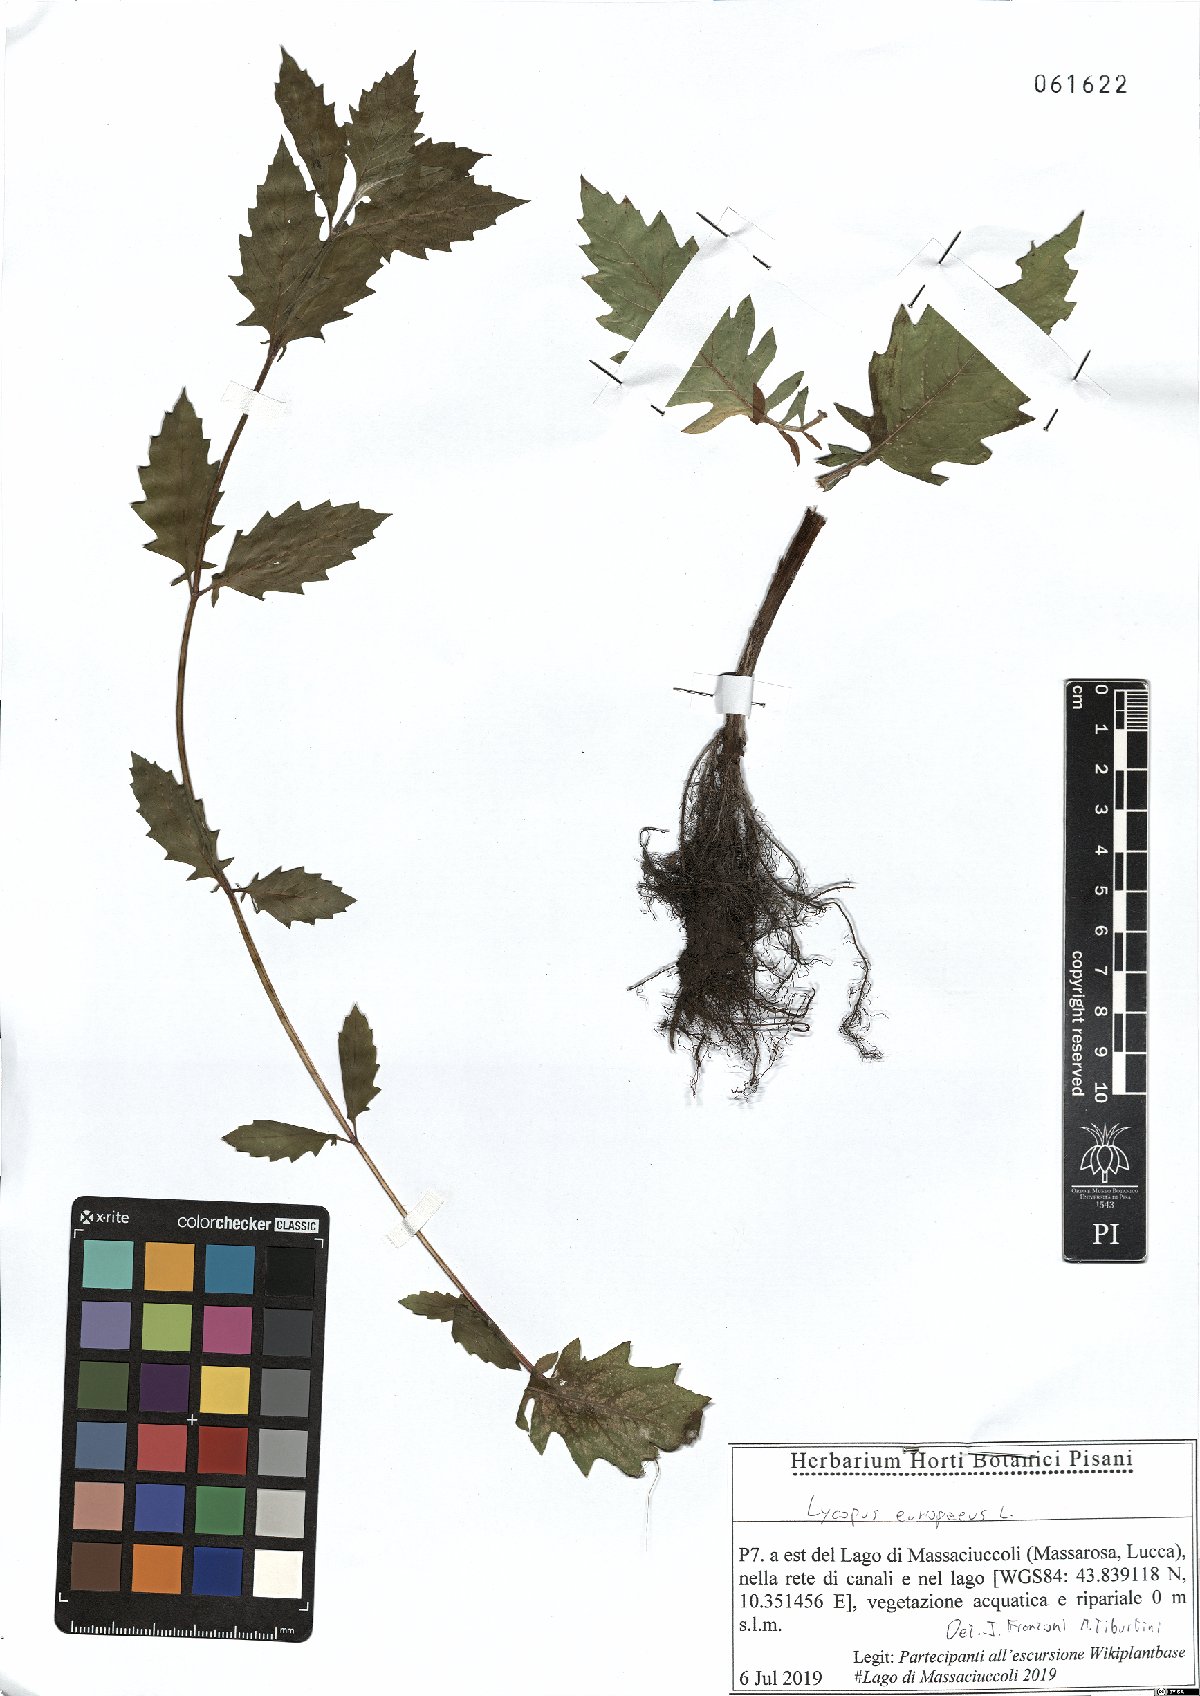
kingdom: Plantae
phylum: Tracheophyta
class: Magnoliopsida
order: Lamiales
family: Lamiaceae
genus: Lycopus
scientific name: Lycopus europaeus
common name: European bugleweed
